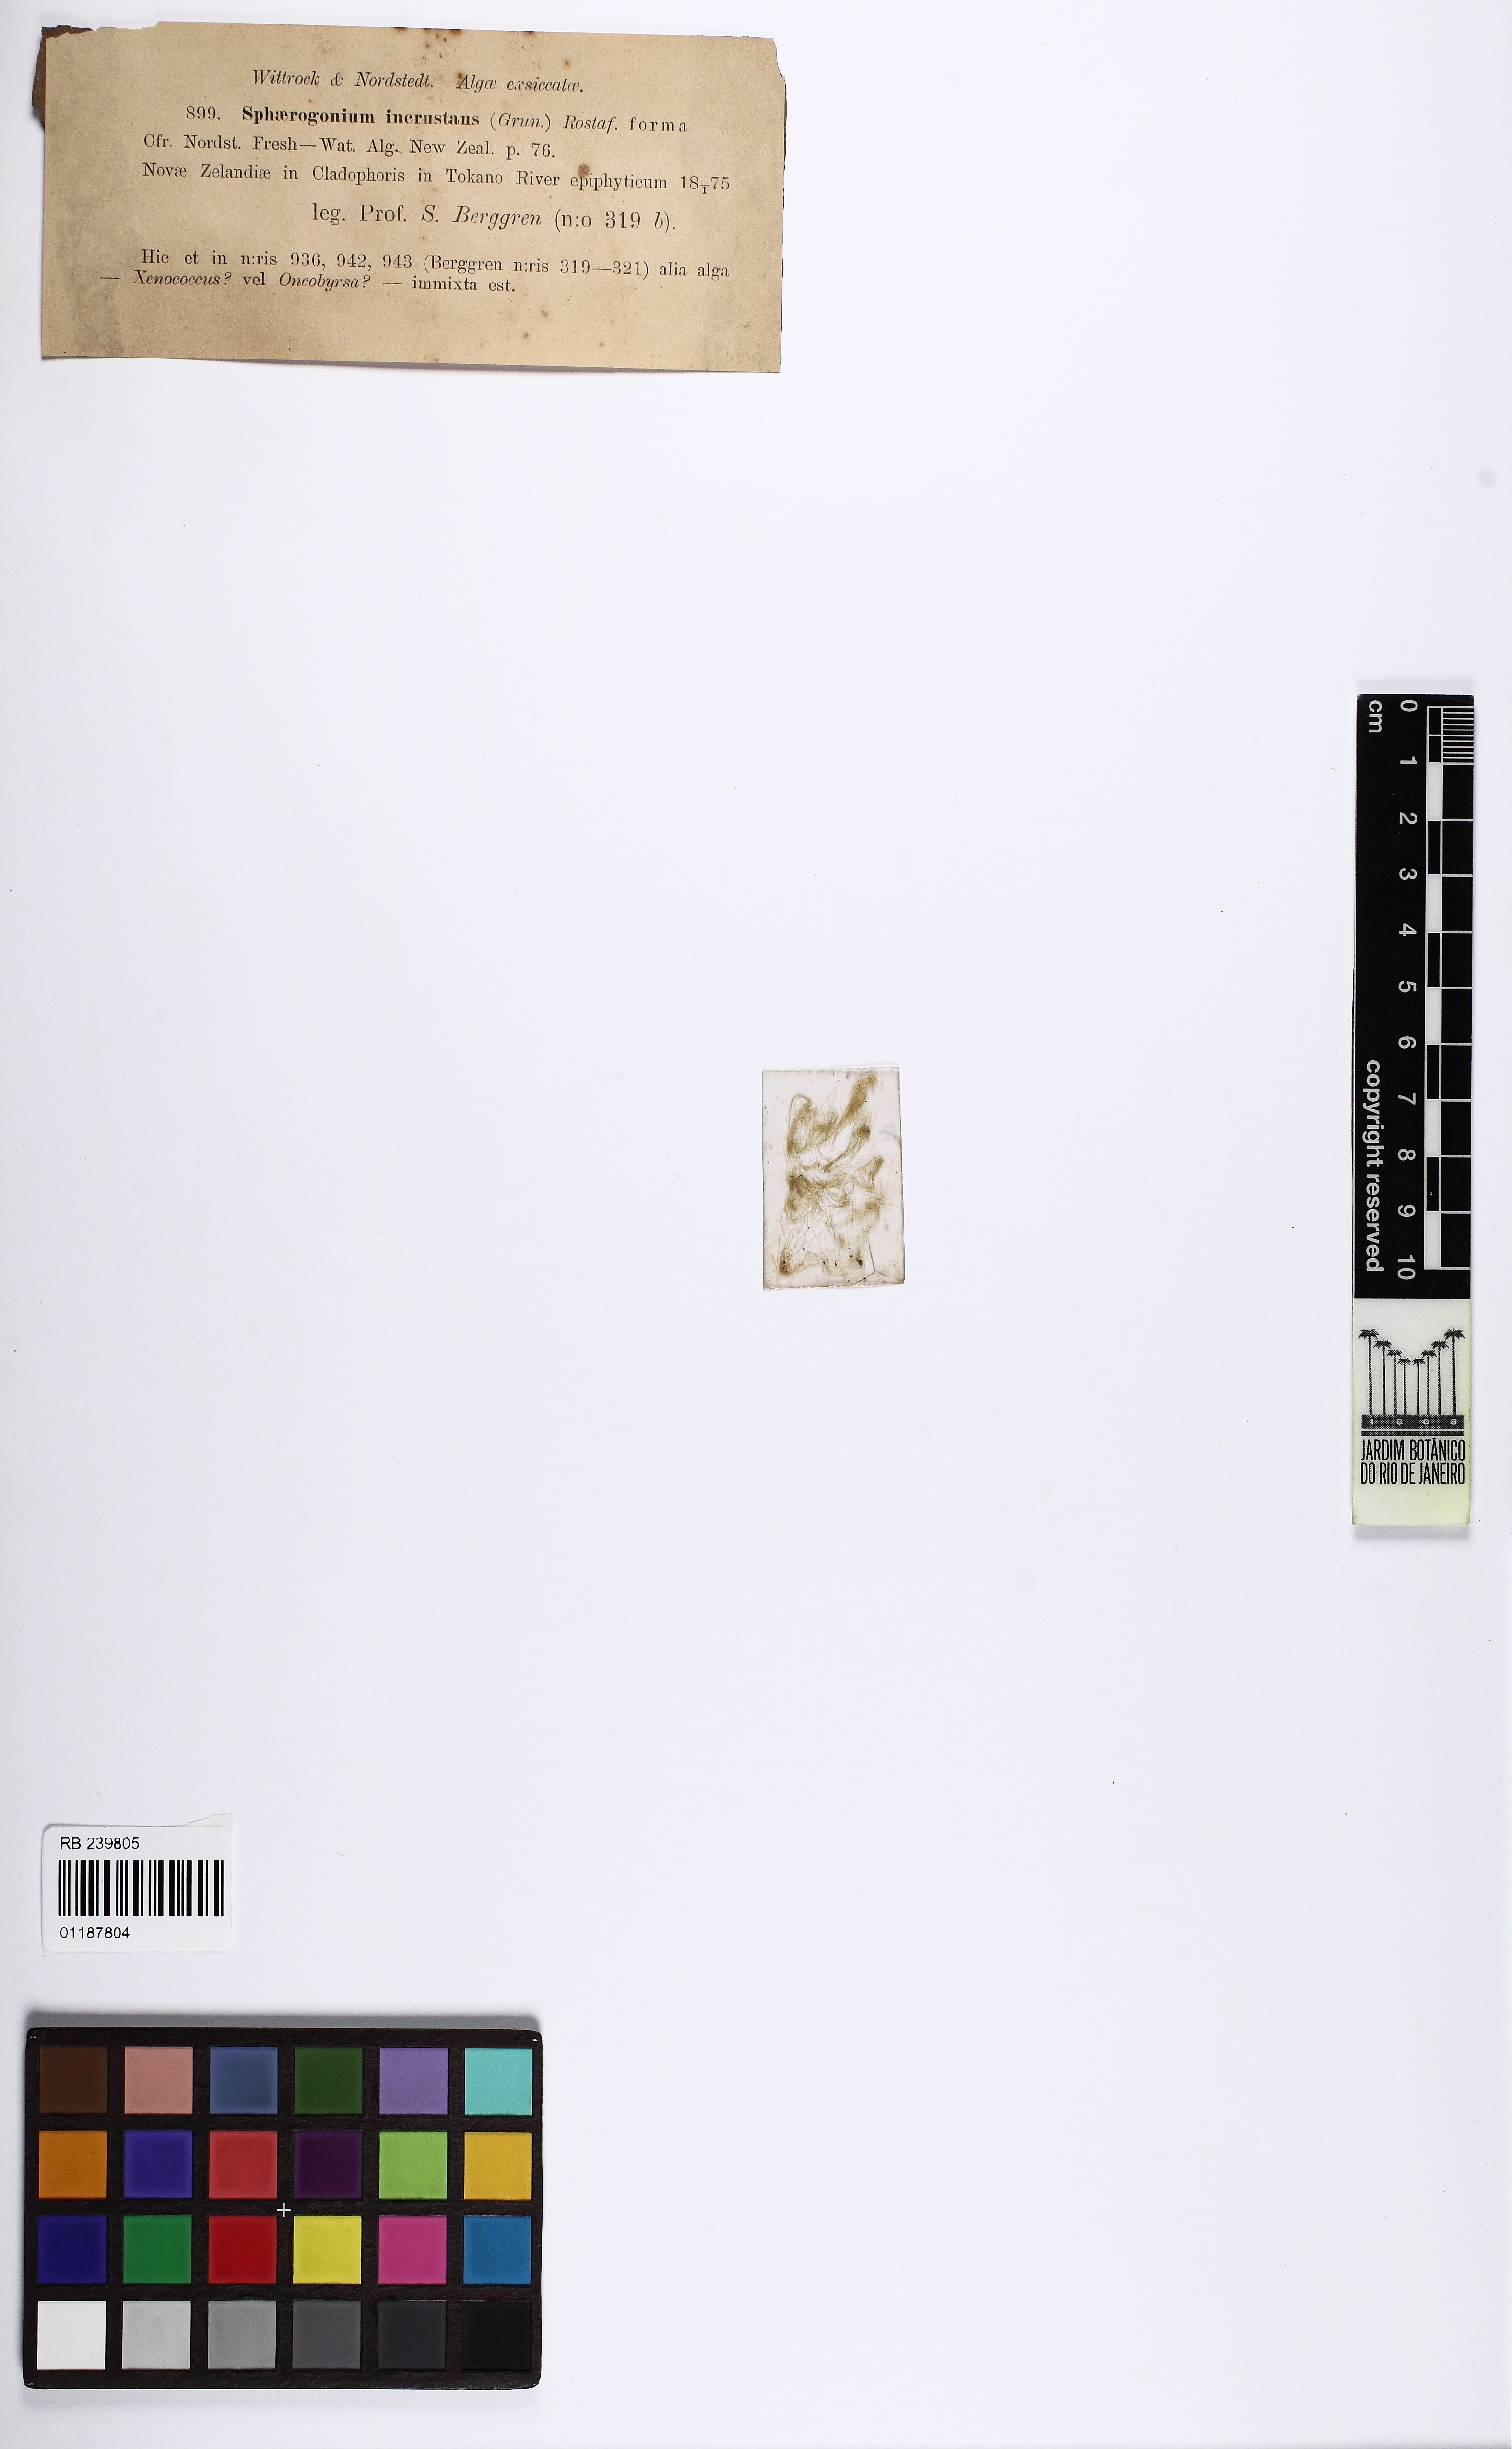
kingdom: Bacteria
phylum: Cyanobacteria
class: Cyanobacteriia
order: Cyanobacteriales
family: Chamaesiphonaceae
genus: Chamaesiphon
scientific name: Chamaesiphon incrustans
